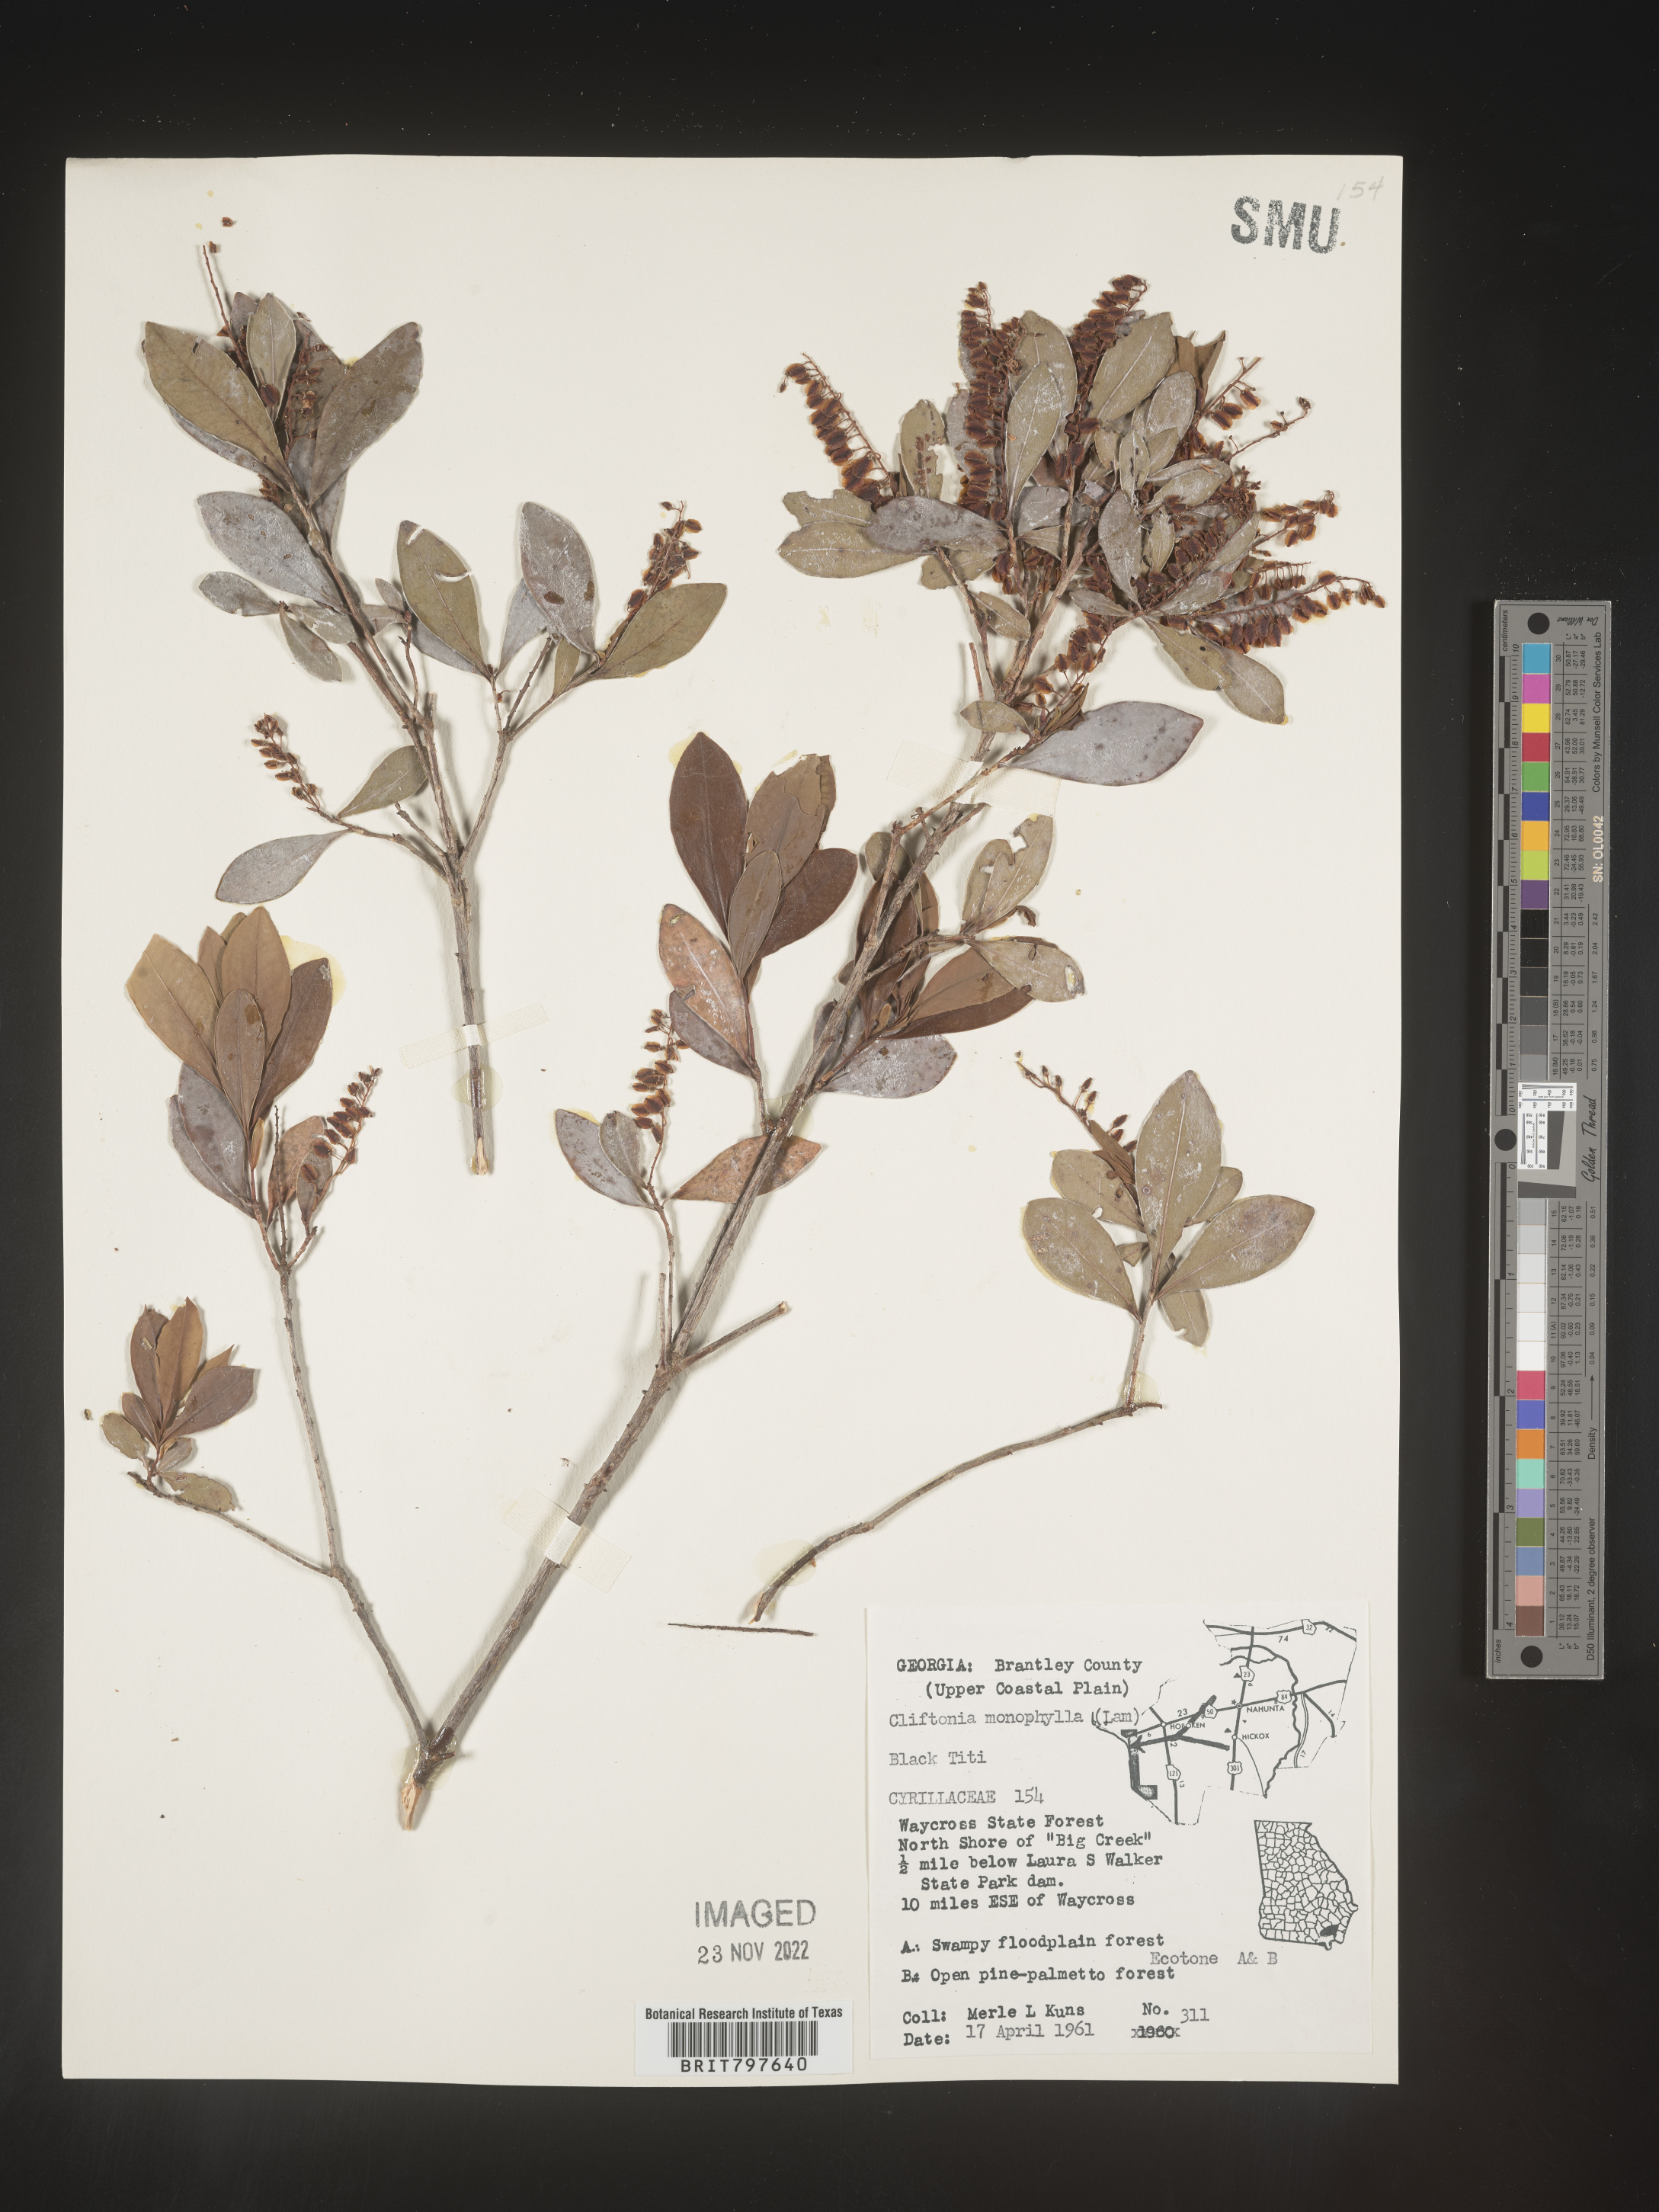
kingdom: Plantae
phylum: Tracheophyta
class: Magnoliopsida
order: Ericales
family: Cyrillaceae
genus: Cliftonia
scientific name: Cliftonia monophylla
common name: Titi
